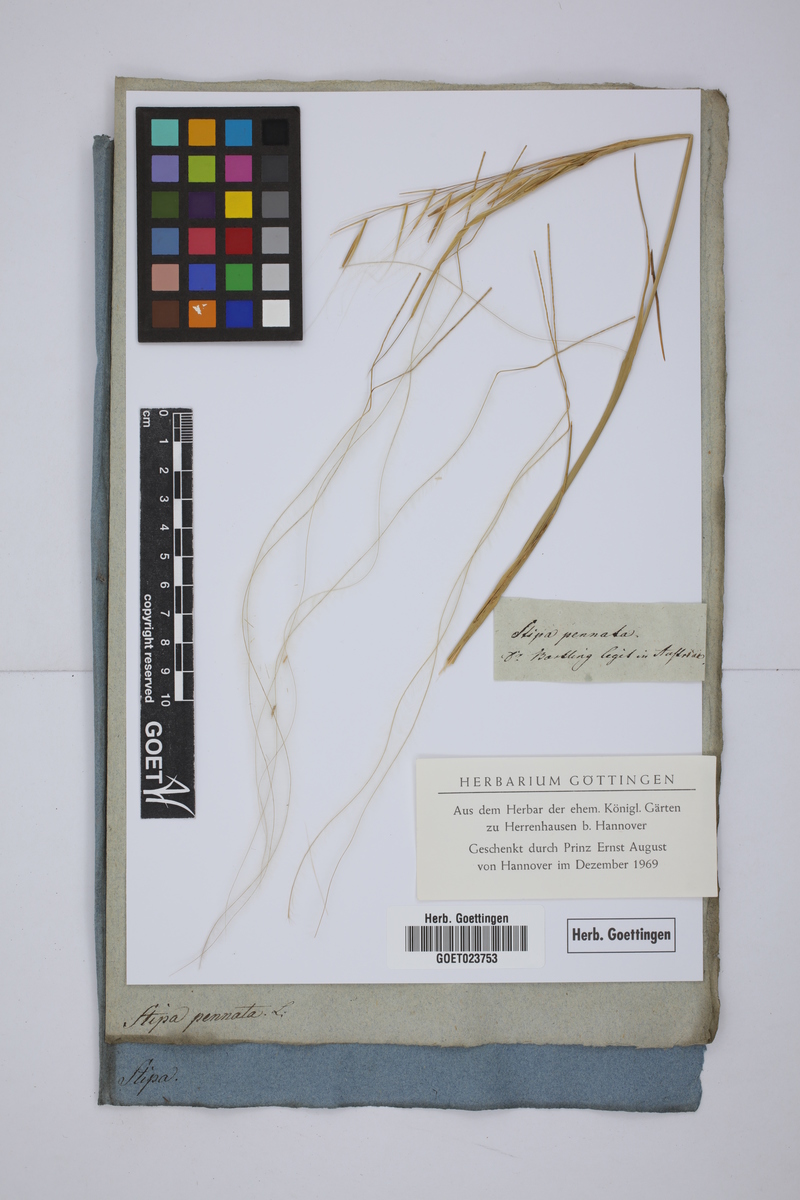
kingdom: Plantae
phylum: Tracheophyta
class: Liliopsida
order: Poales
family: Poaceae
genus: Stipa
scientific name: Stipa pennata
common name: European feather grass
